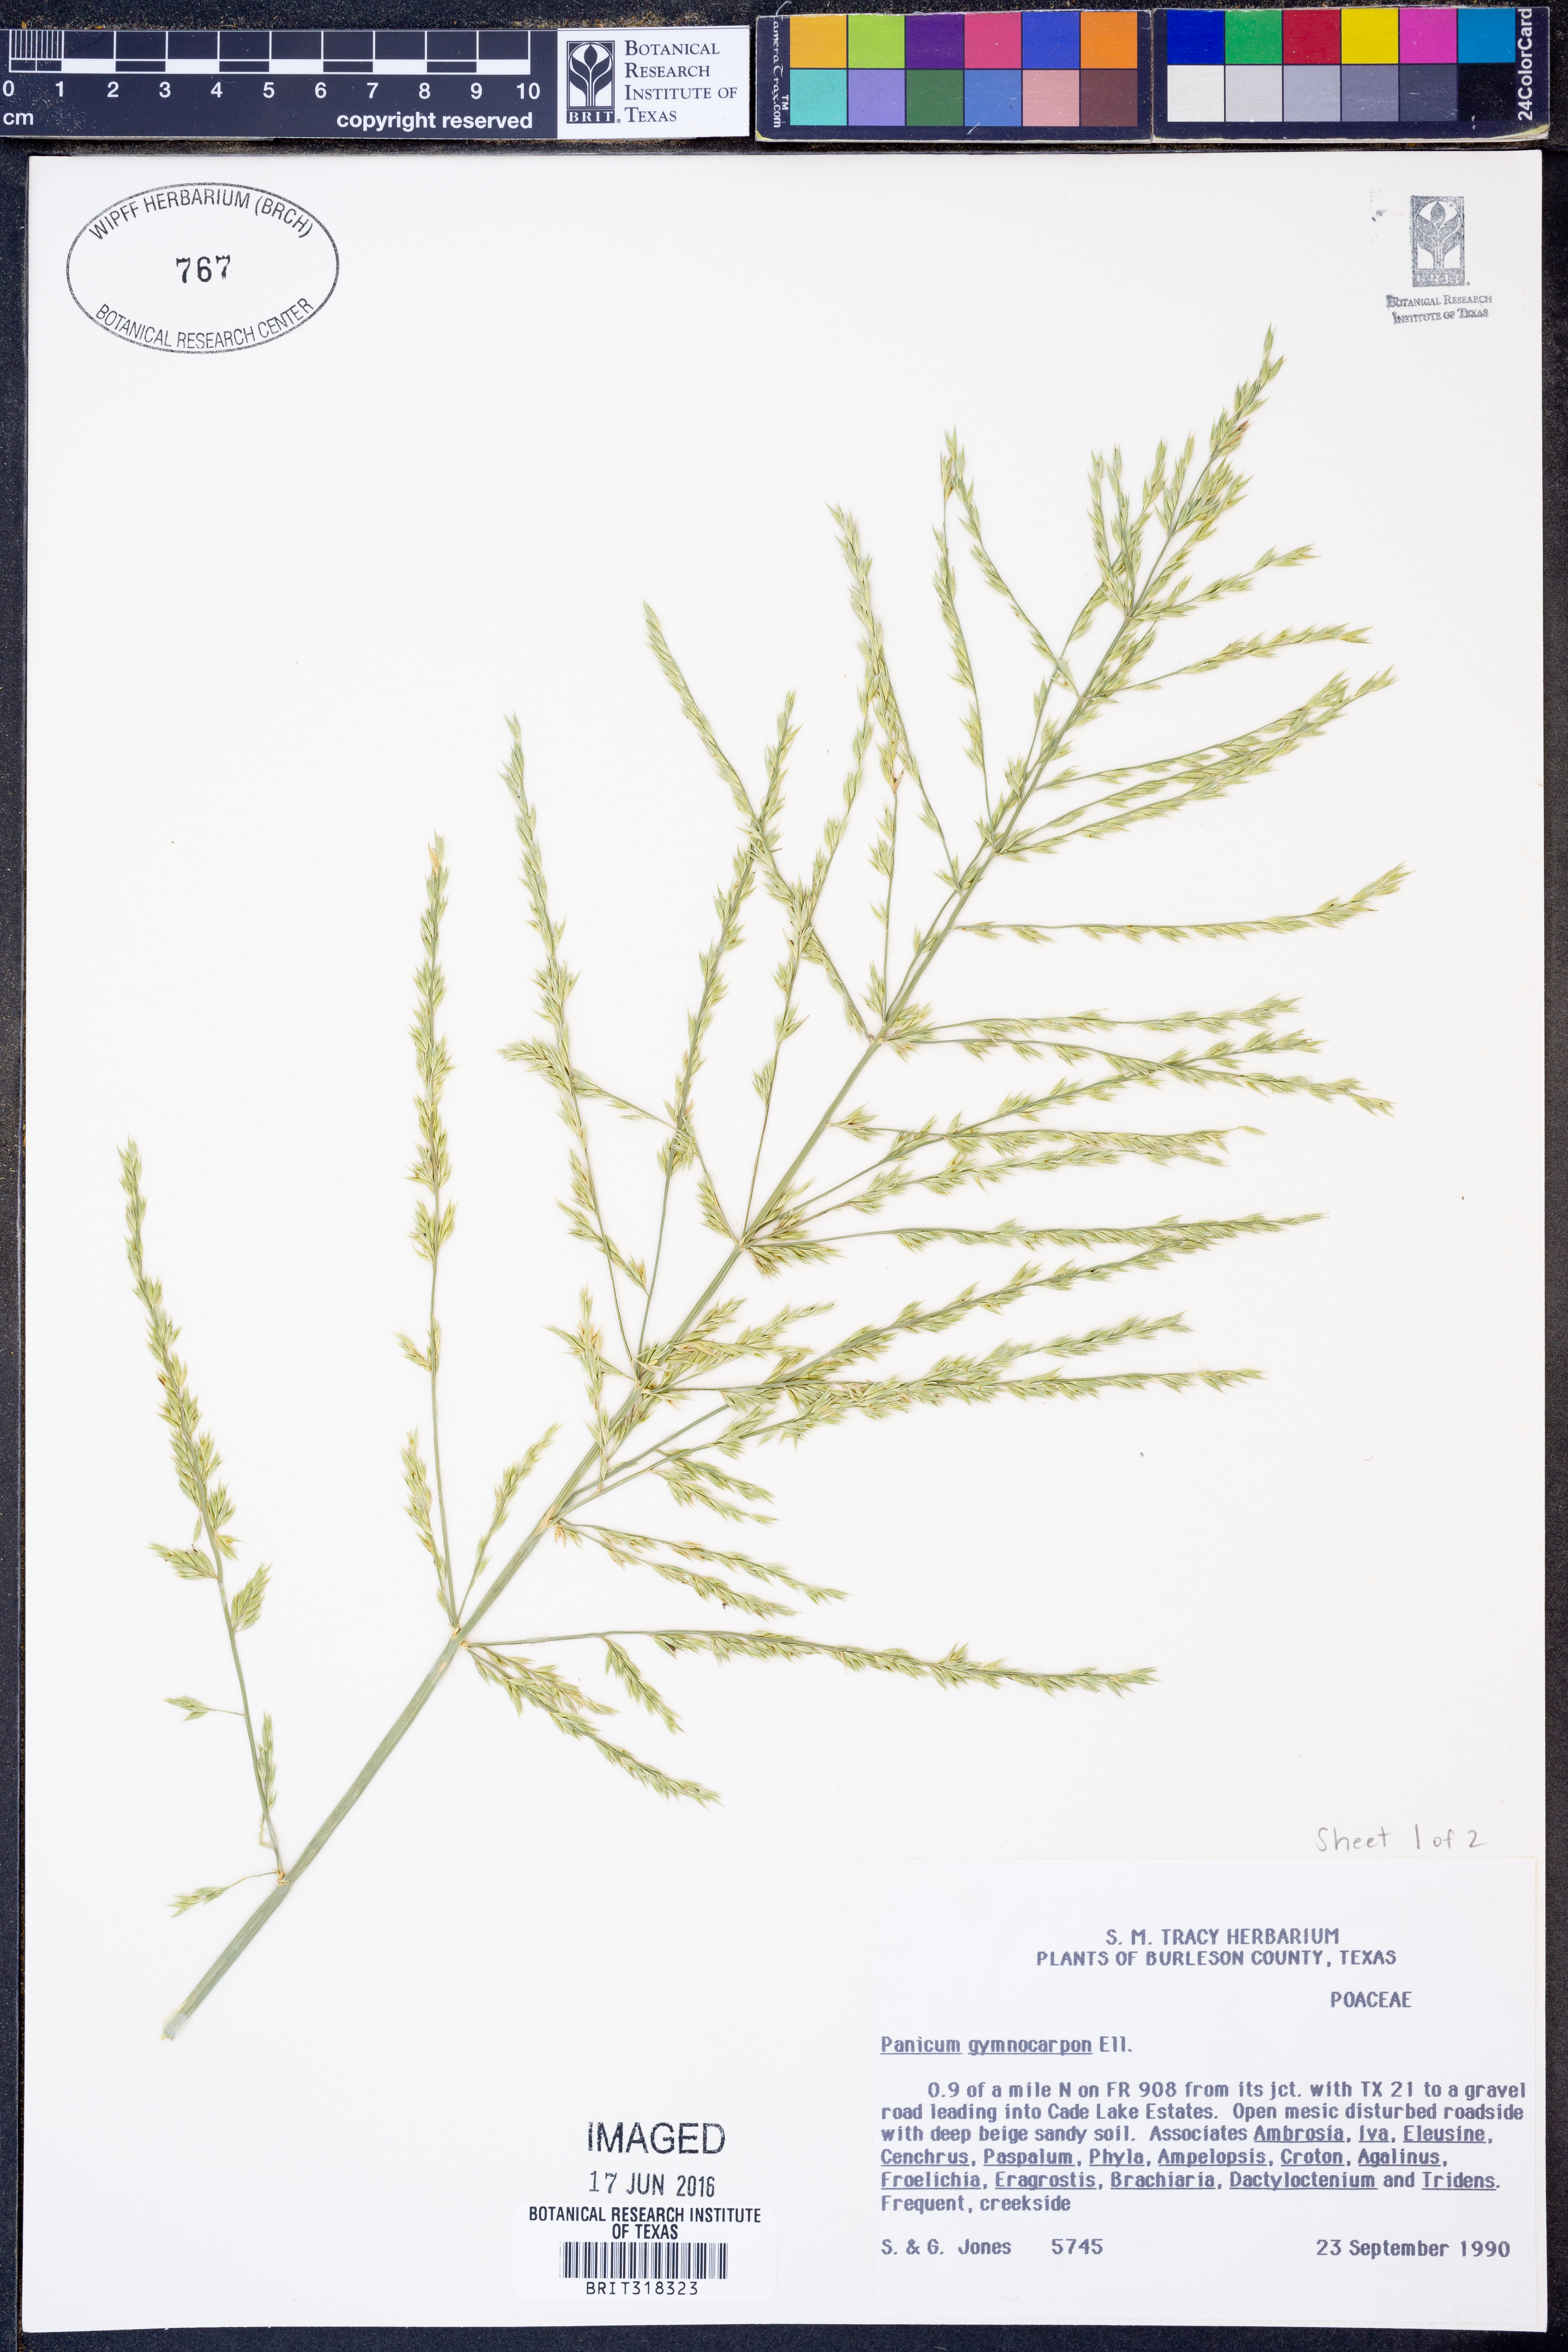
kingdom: Plantae
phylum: Tracheophyta
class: Liliopsida
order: Poales
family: Poaceae
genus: Panicum
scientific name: Panicum gymnocarpon
